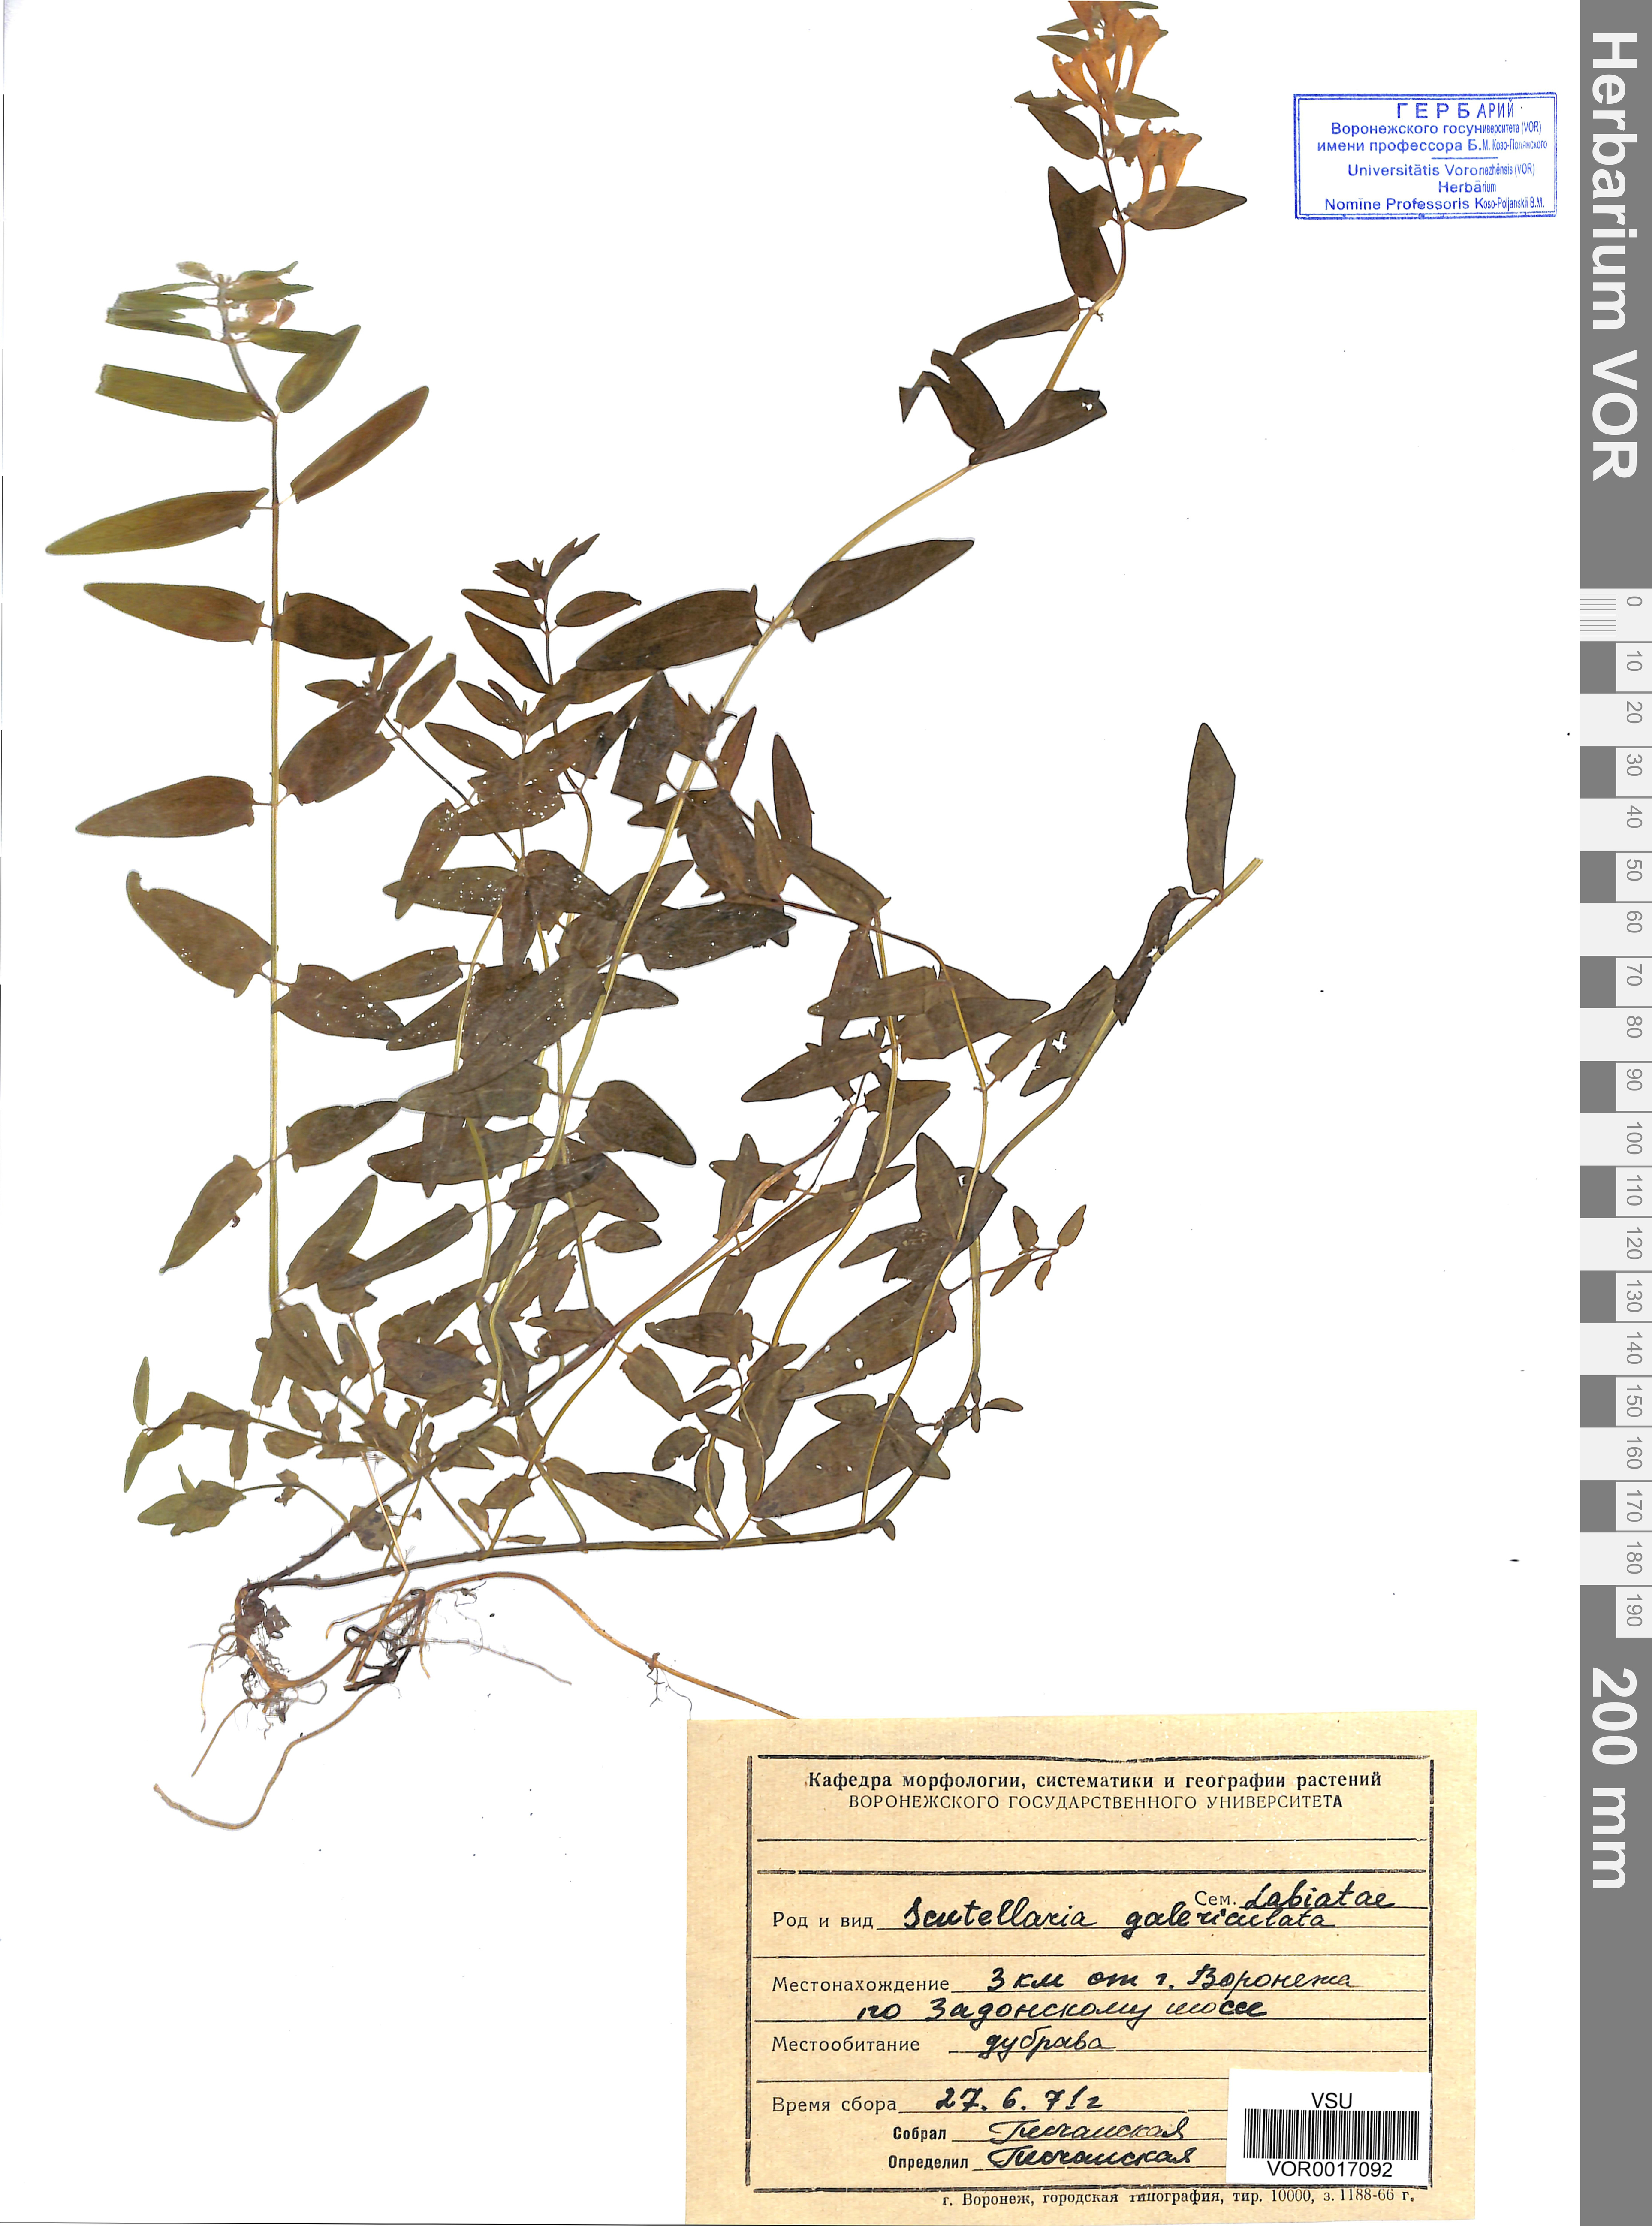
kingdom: Plantae
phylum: Tracheophyta
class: Magnoliopsida
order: Lamiales
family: Lamiaceae
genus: Scutellaria
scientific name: Scutellaria galericulata
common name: Skullcap
